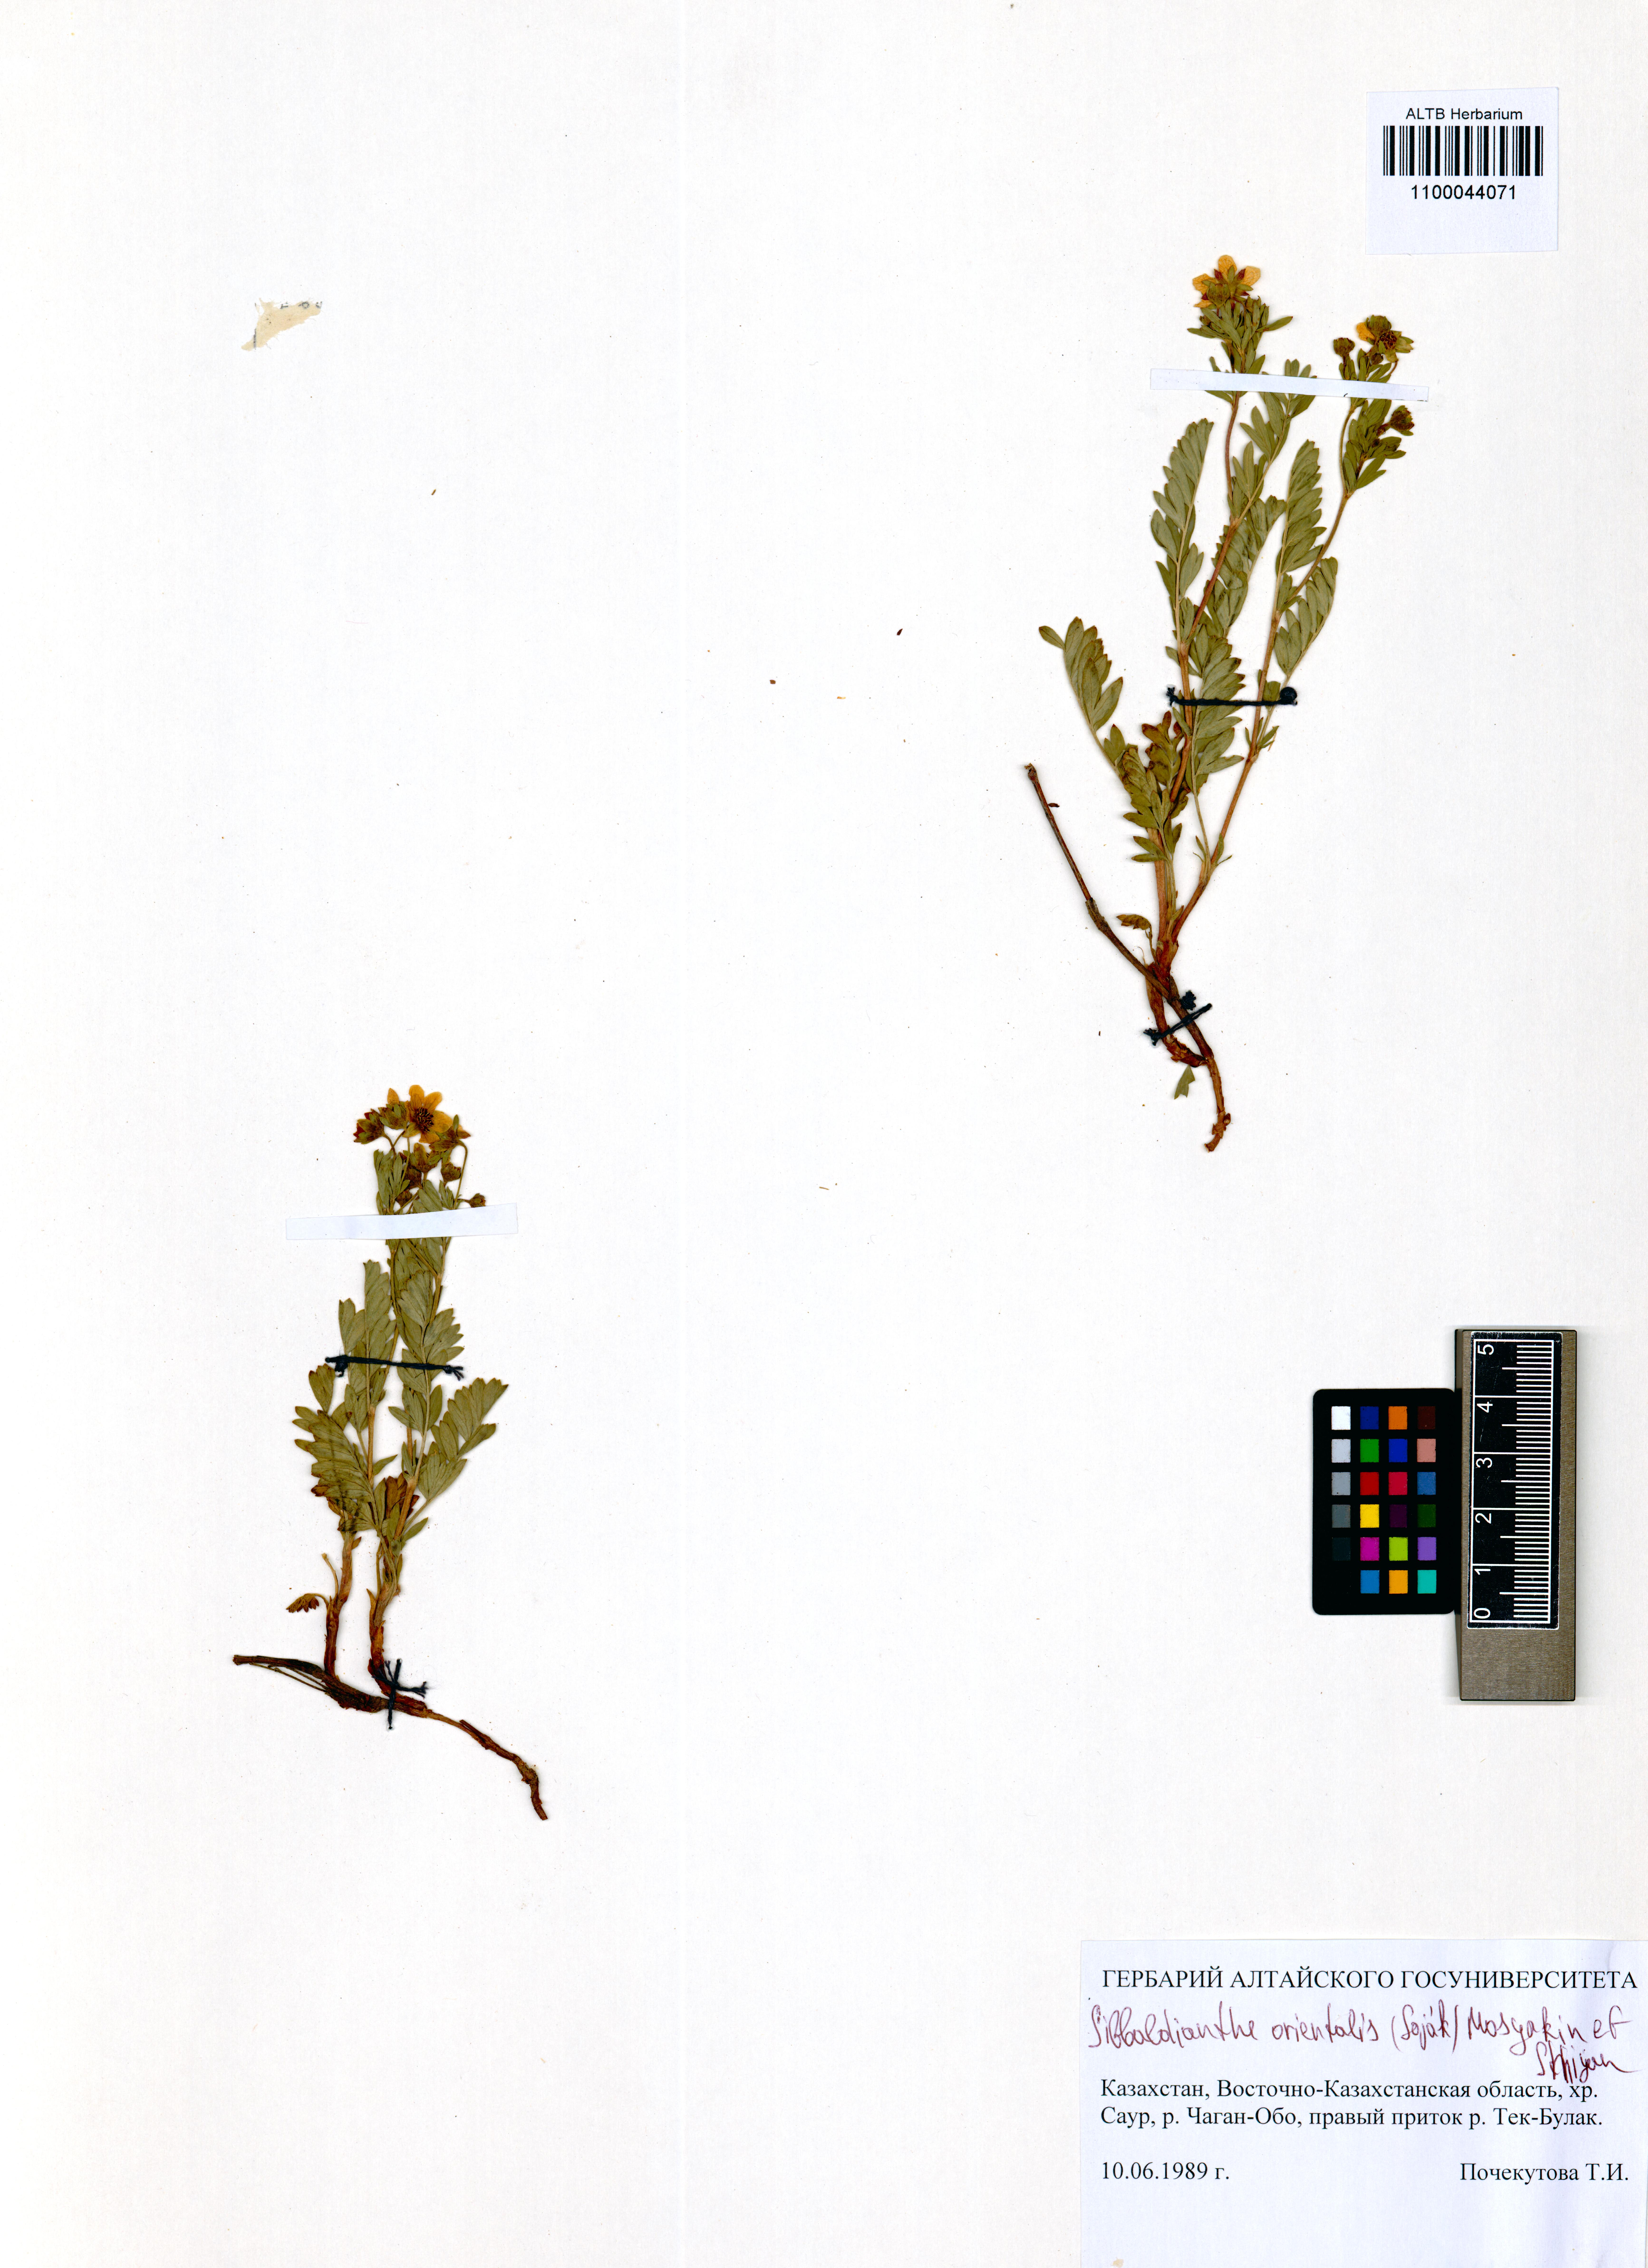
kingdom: Plantae
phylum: Tracheophyta
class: Magnoliopsida
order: Rosales
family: Rosaceae
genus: Sibbaldianthe
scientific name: Sibbaldianthe orientalis
